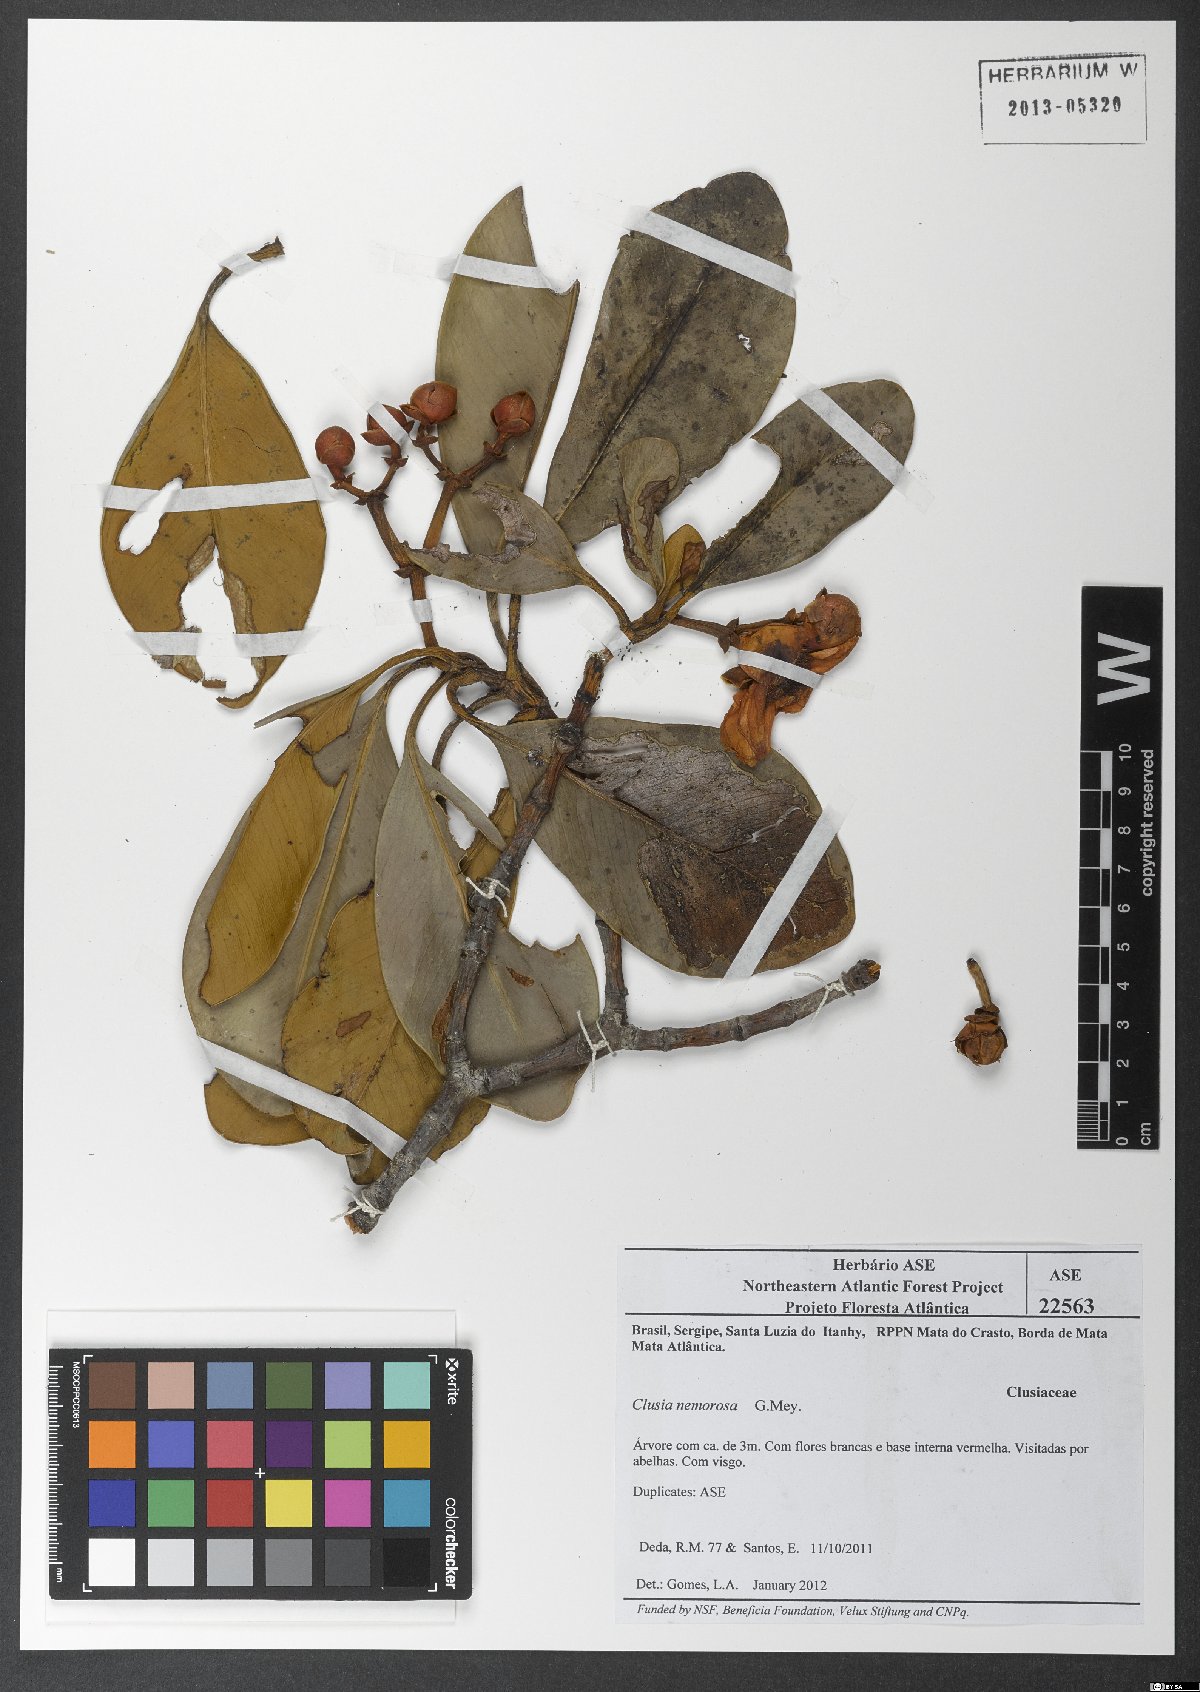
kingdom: Plantae
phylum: Tracheophyta
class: Magnoliopsida
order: Malpighiales
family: Clusiaceae
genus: Clusia
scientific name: Clusia nemorosa
